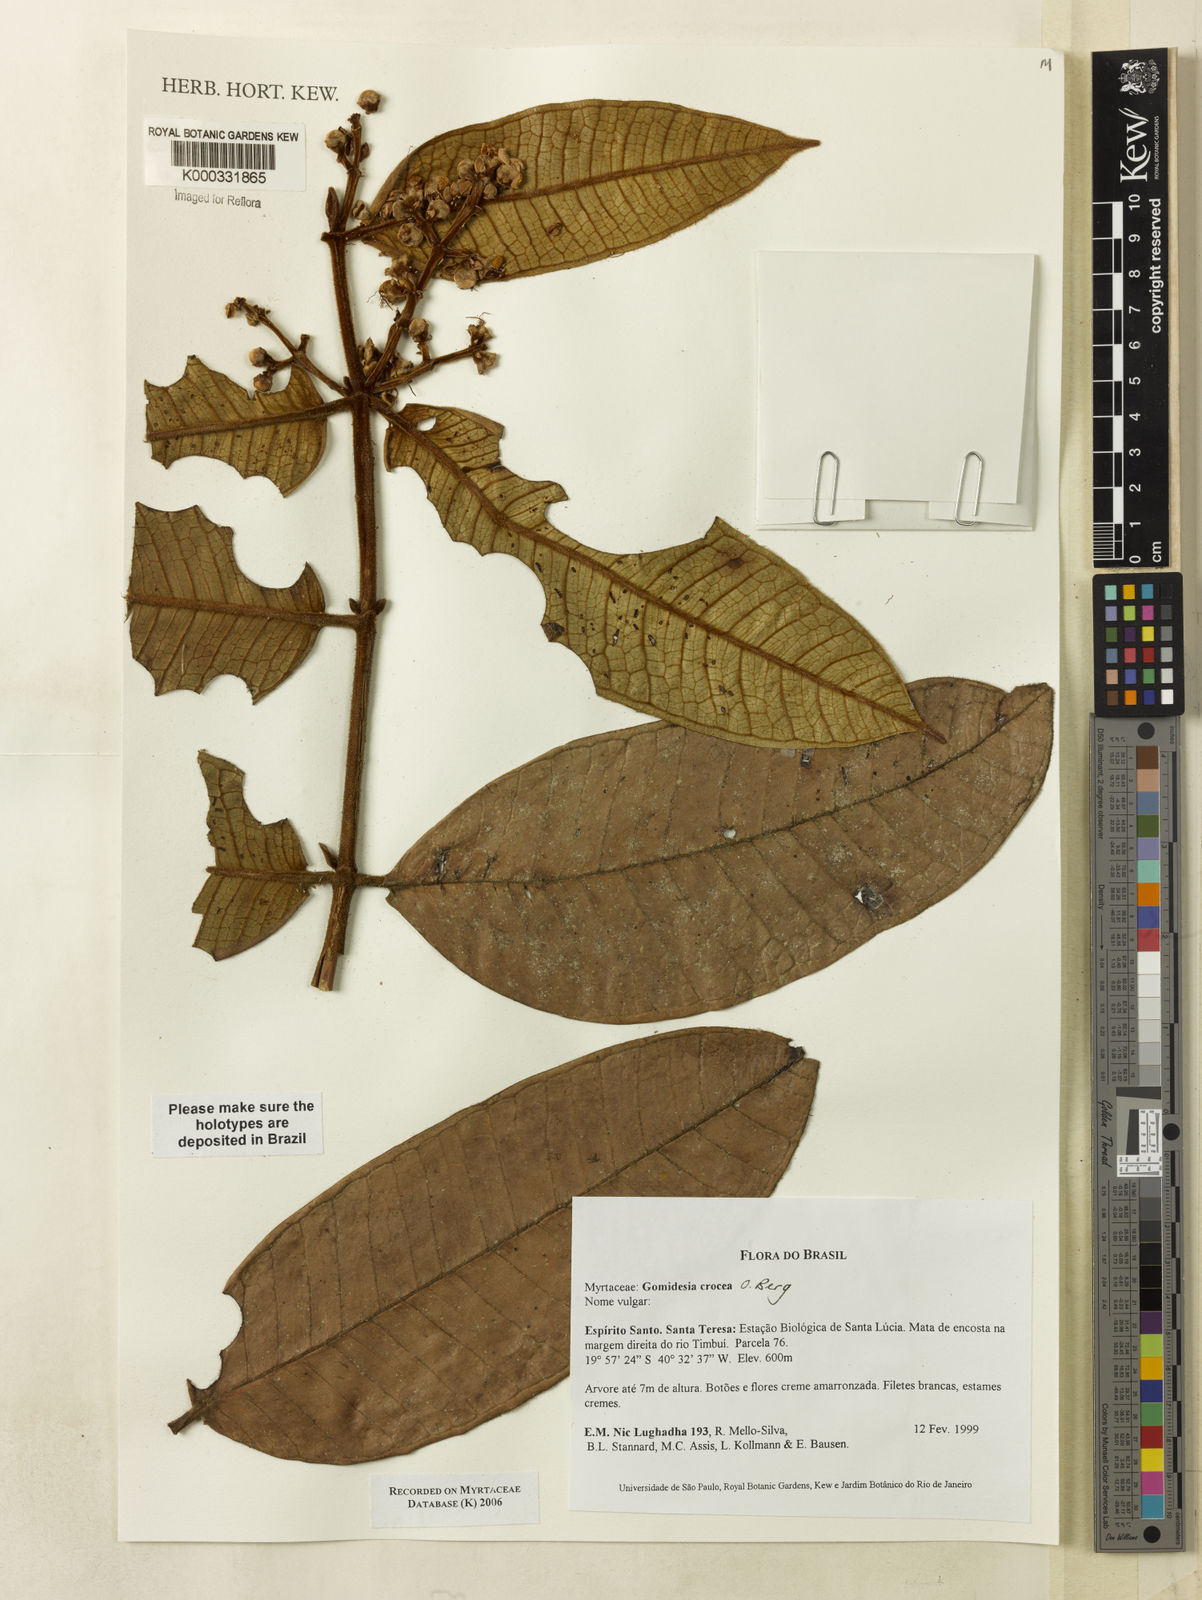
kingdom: Plantae
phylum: Tracheophyta
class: Magnoliopsida
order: Myrtales
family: Myrtaceae
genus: Myrcia
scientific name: Myrcia amplexicaulis
